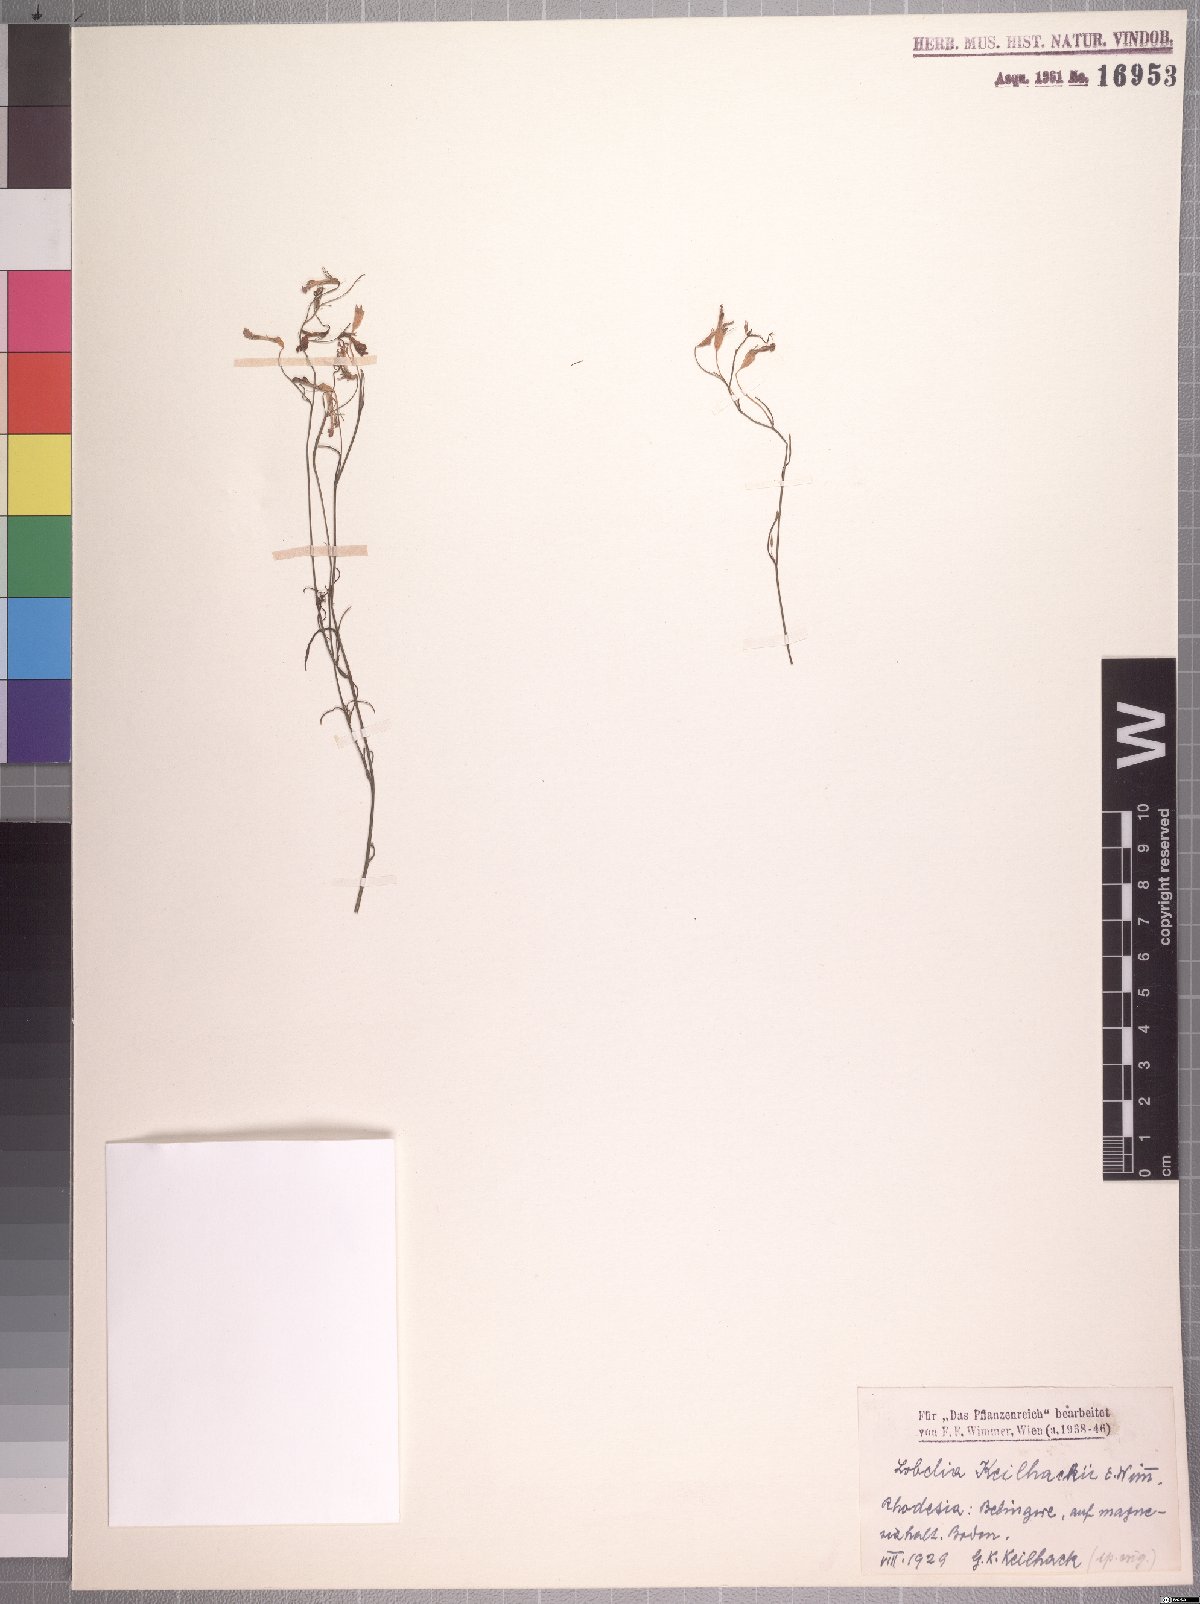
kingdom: Plantae
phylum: Tracheophyta
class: Magnoliopsida
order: Asterales
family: Campanulaceae
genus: Lobelia
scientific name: Lobelia erinus
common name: Edging lobelia
